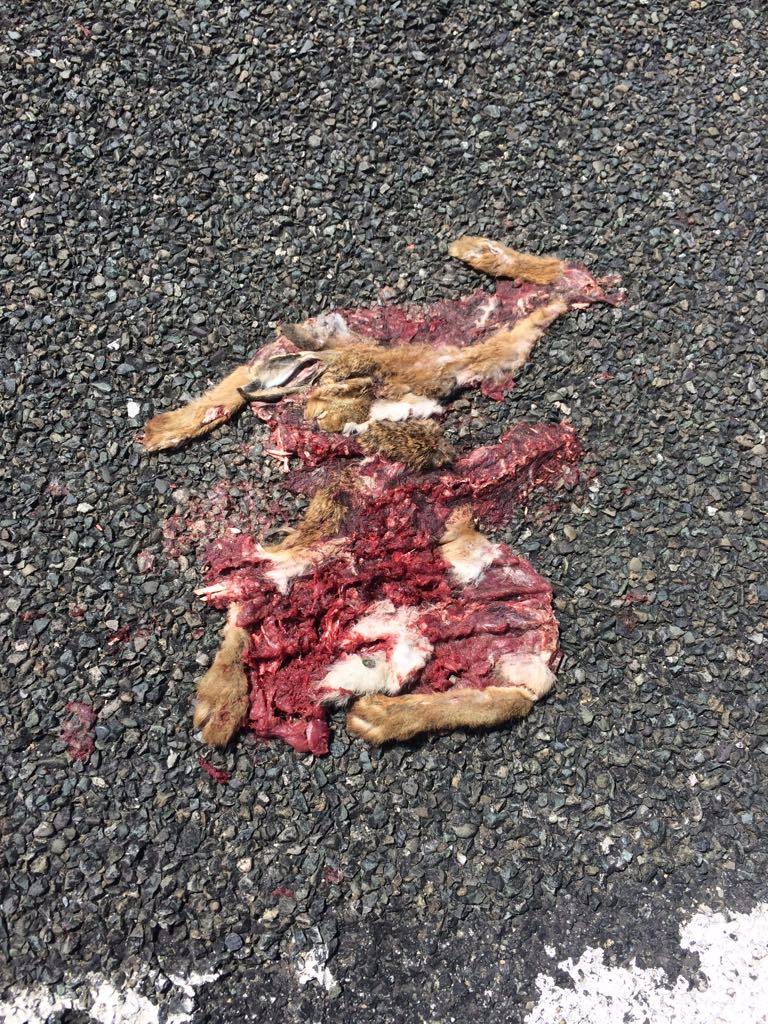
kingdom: Animalia
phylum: Chordata
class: Mammalia
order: Lagomorpha
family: Leporidae
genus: Lepus
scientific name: Lepus europaeus
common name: European hare
